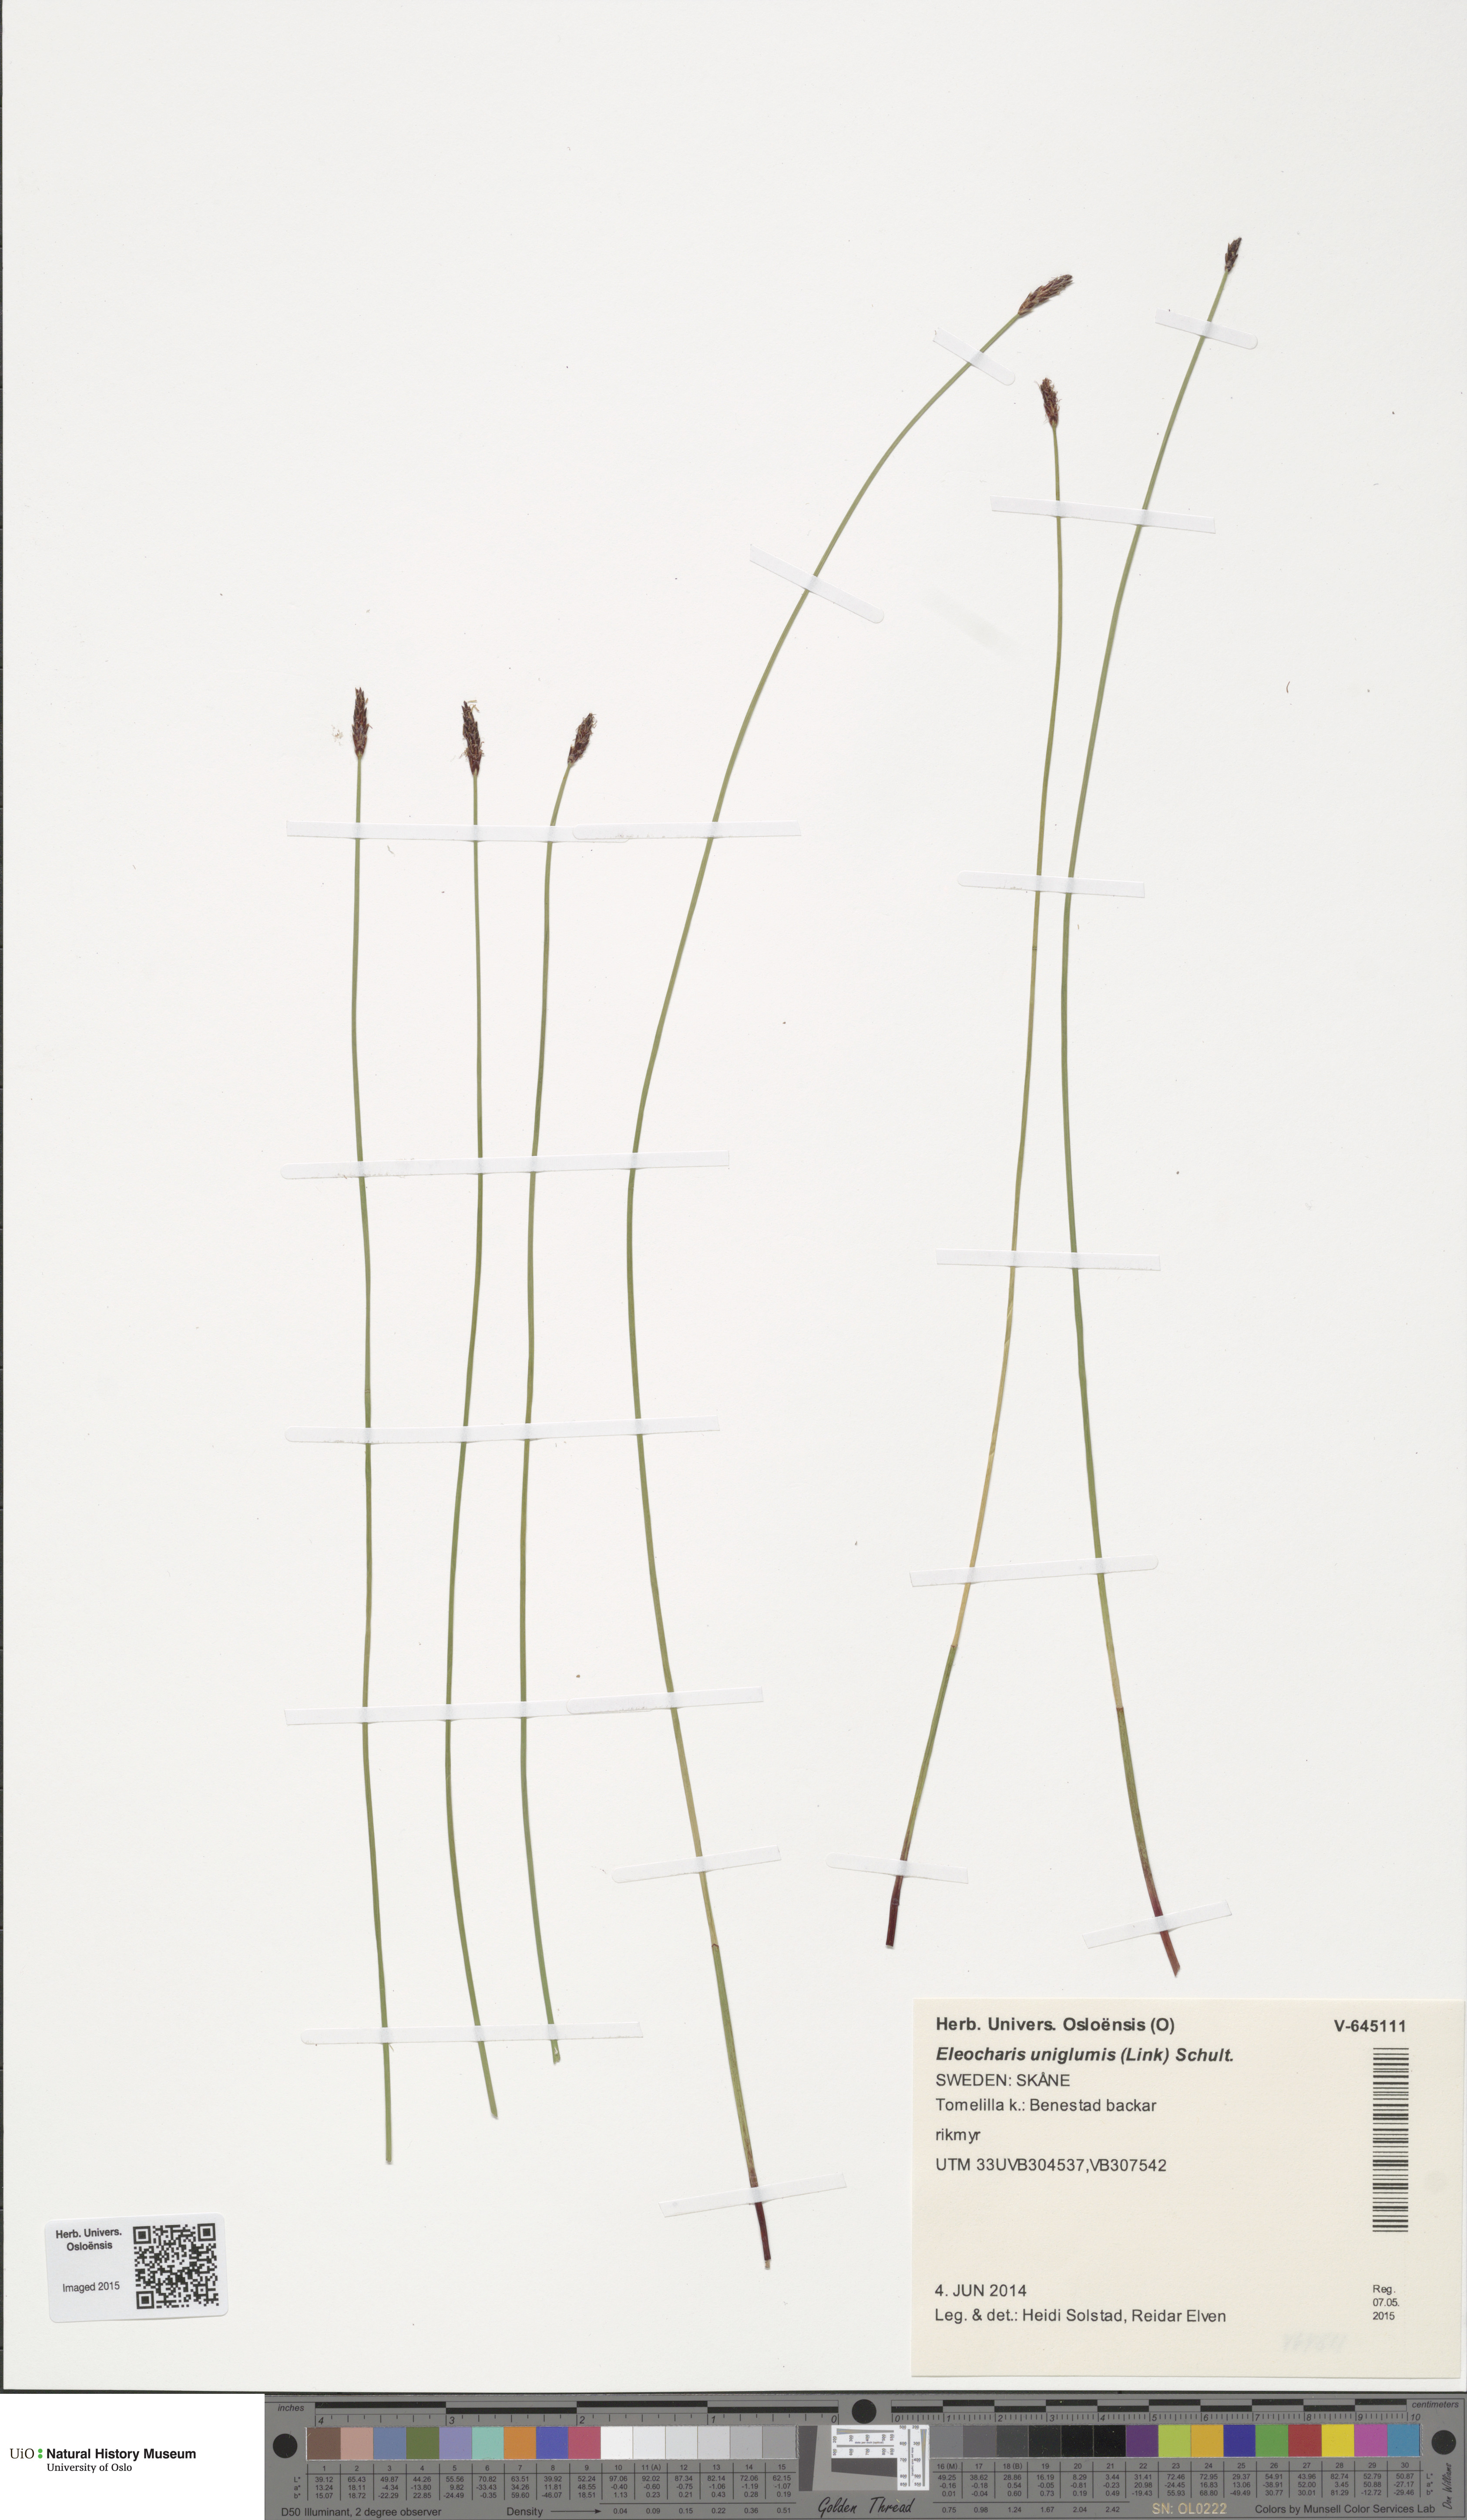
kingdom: Plantae
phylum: Tracheophyta
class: Liliopsida
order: Poales
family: Cyperaceae
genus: Eleocharis
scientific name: Eleocharis uniglumis
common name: Slender spike-rush
